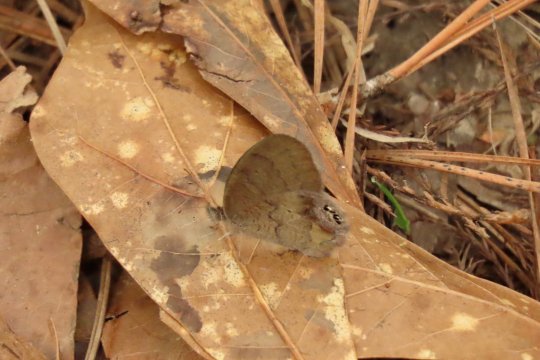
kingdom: Animalia
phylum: Arthropoda
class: Insecta
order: Lepidoptera
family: Nymphalidae
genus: Euptychia
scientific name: Euptychia cornelius
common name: Gemmed Satyr
